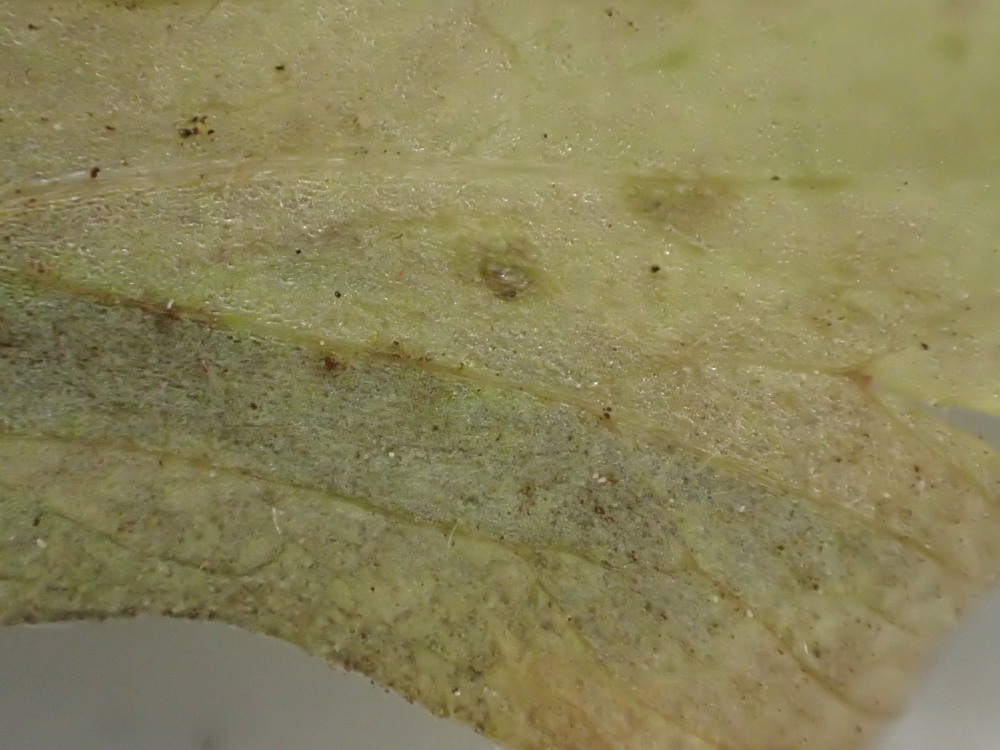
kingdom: Chromista
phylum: Oomycota
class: Peronosporea
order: Peronosporales
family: Peronosporaceae
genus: Plasmoverna
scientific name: Plasmoverna pygmaea
